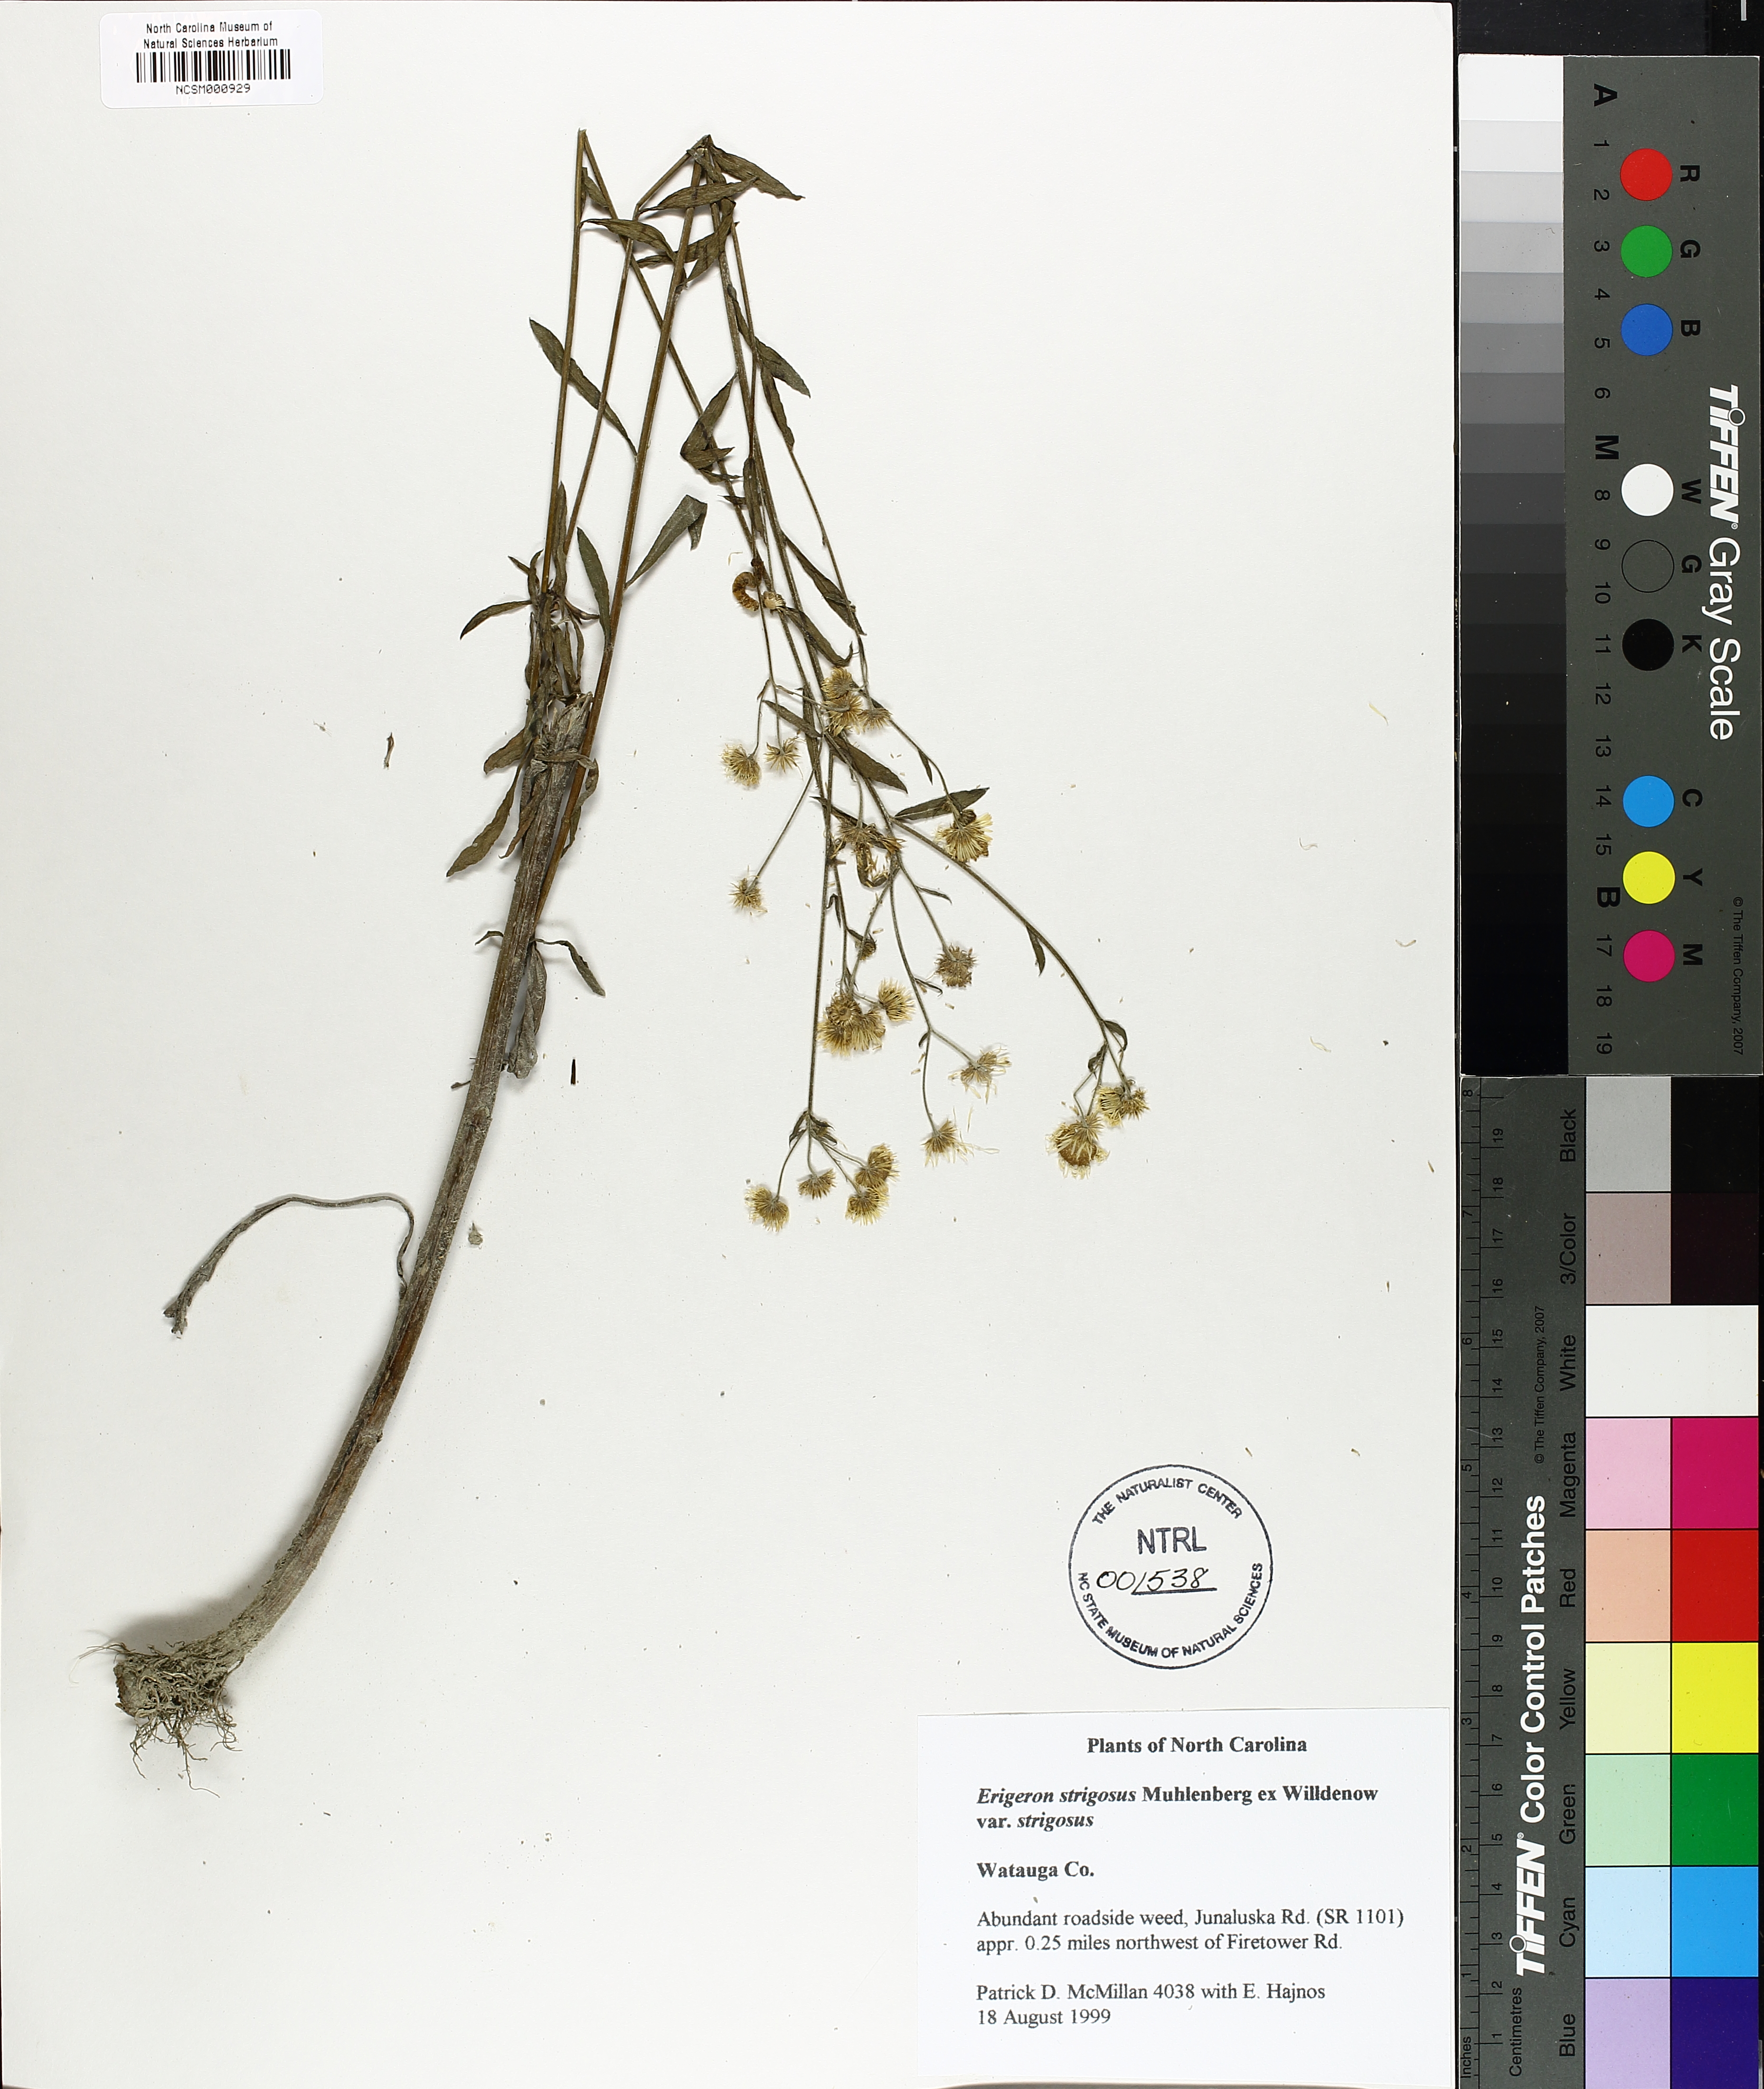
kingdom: Plantae
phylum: Tracheophyta
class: Magnoliopsida
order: Asterales
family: Asteraceae
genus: Erigeron
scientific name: Erigeron strigosus
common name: Common eastern fleabane
